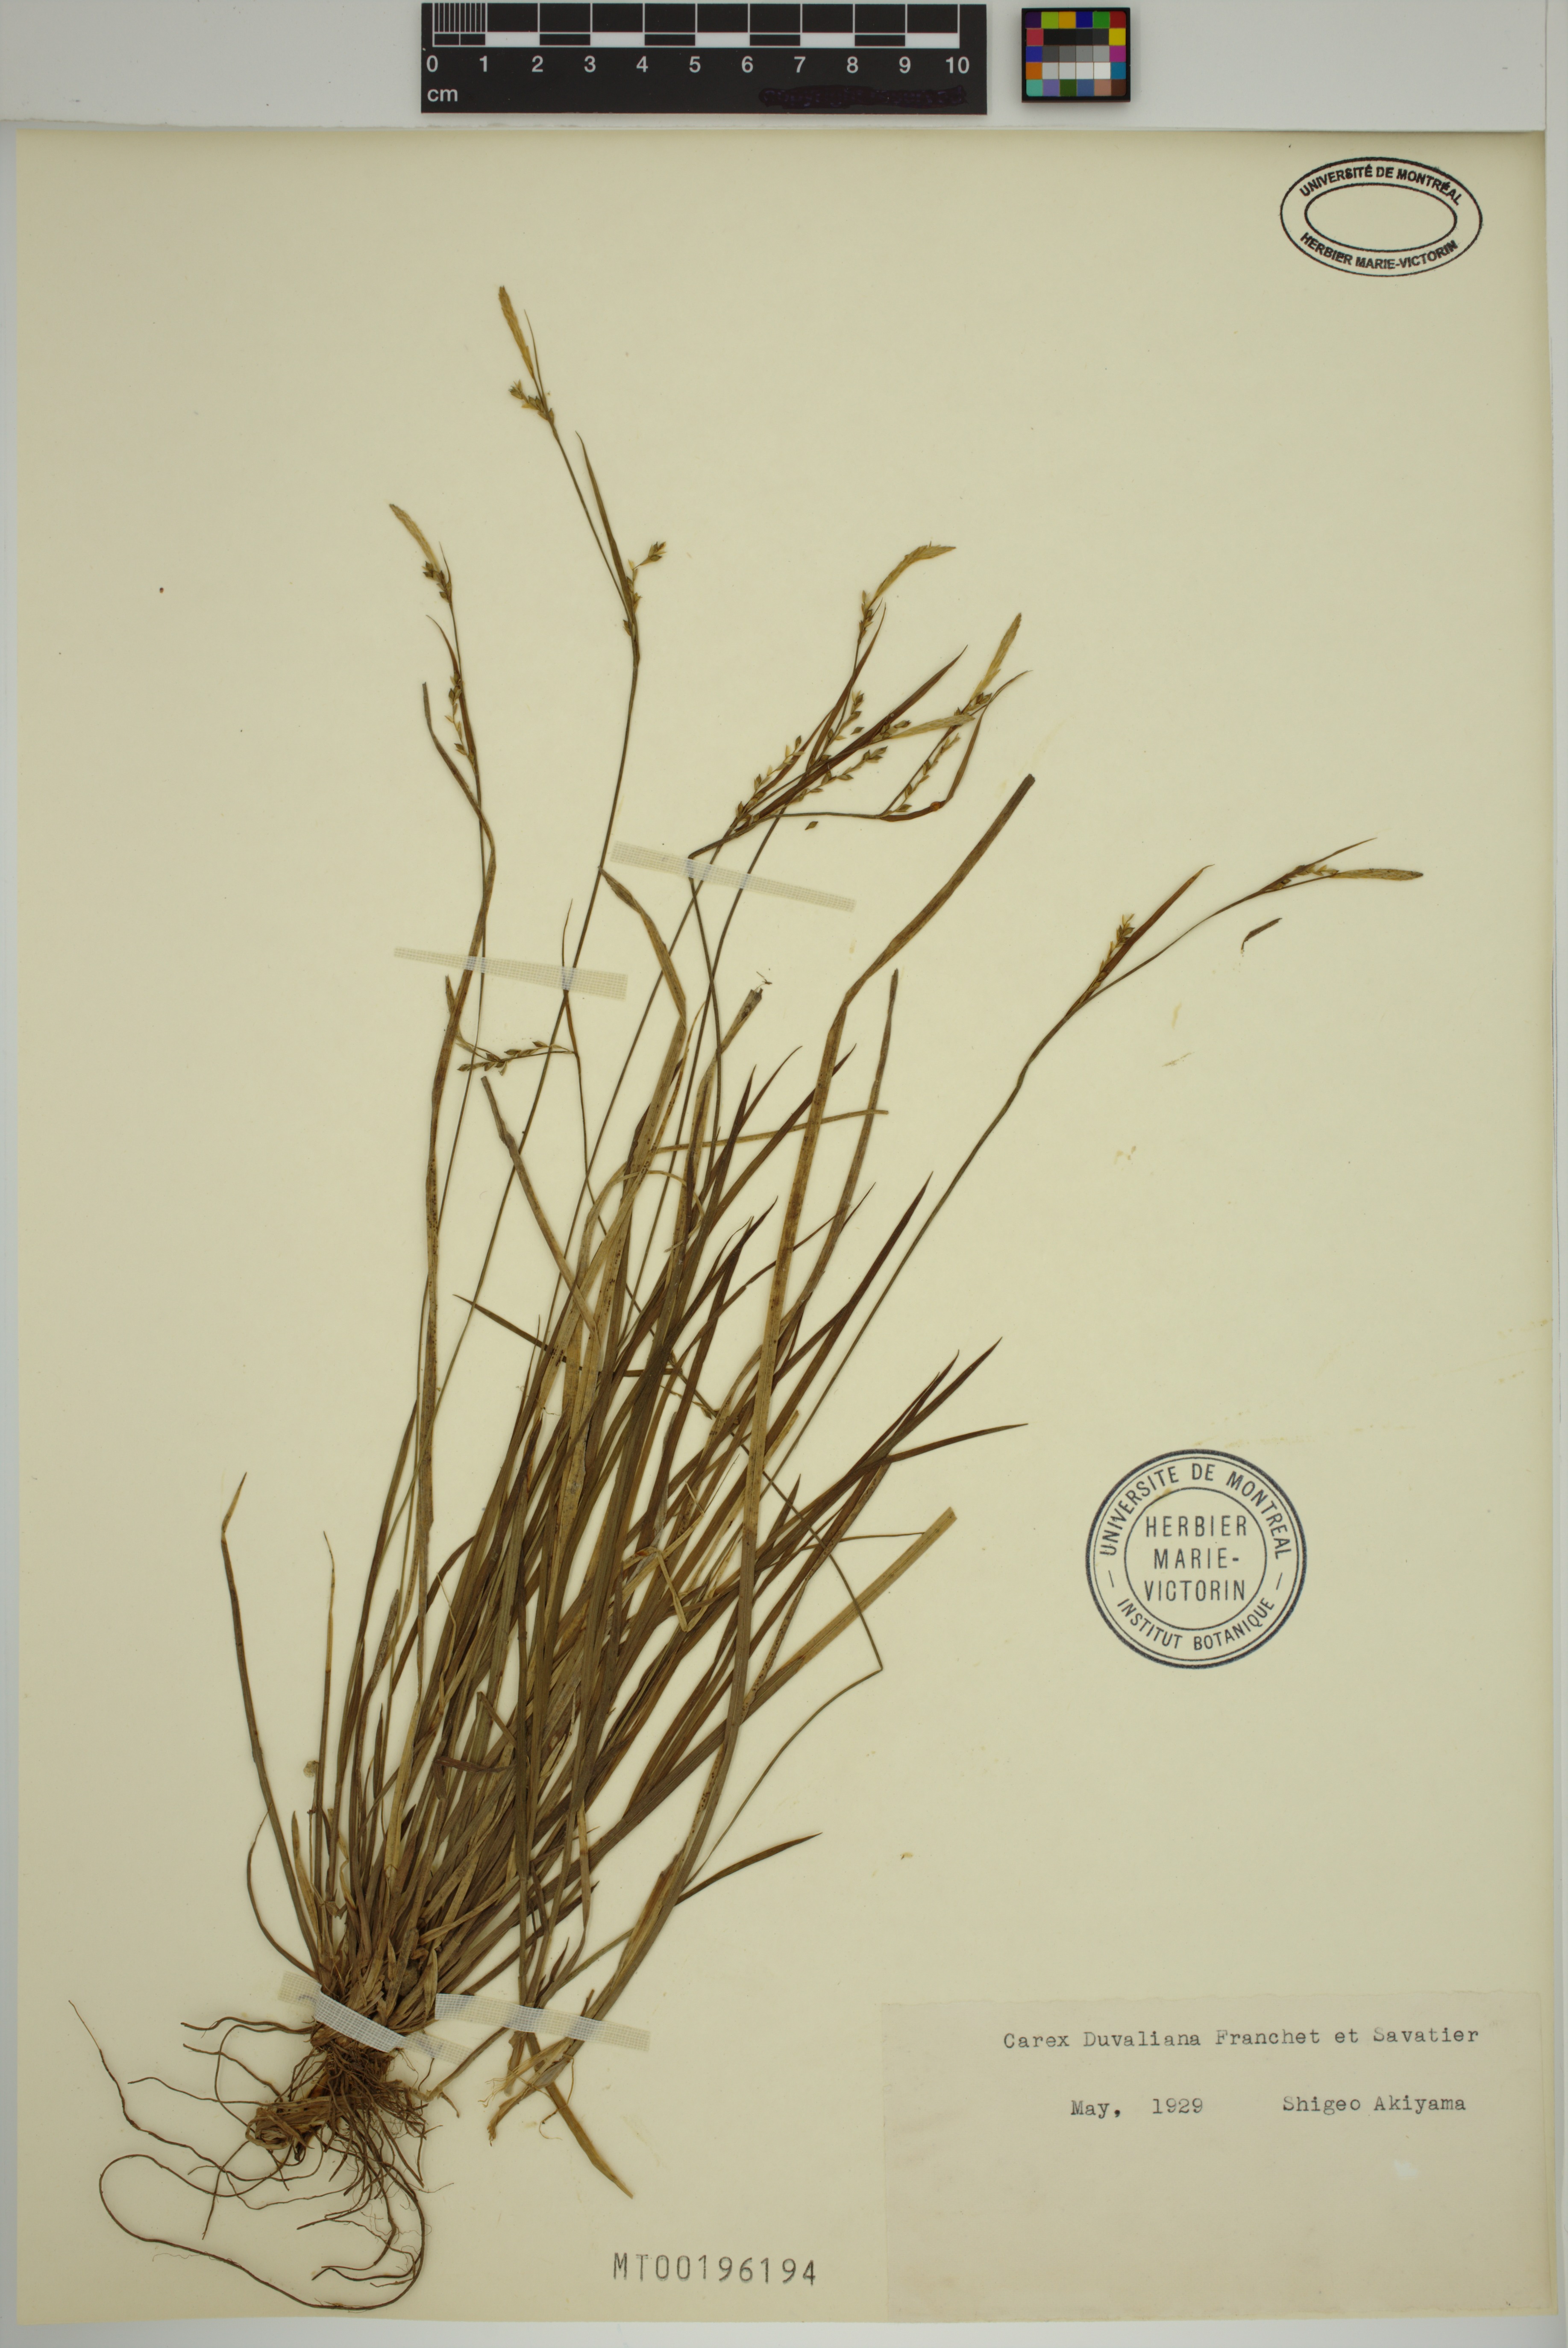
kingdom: Plantae
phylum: Tracheophyta
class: Liliopsida
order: Poales
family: Cyperaceae
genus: Carex
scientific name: Carex duvaliana
